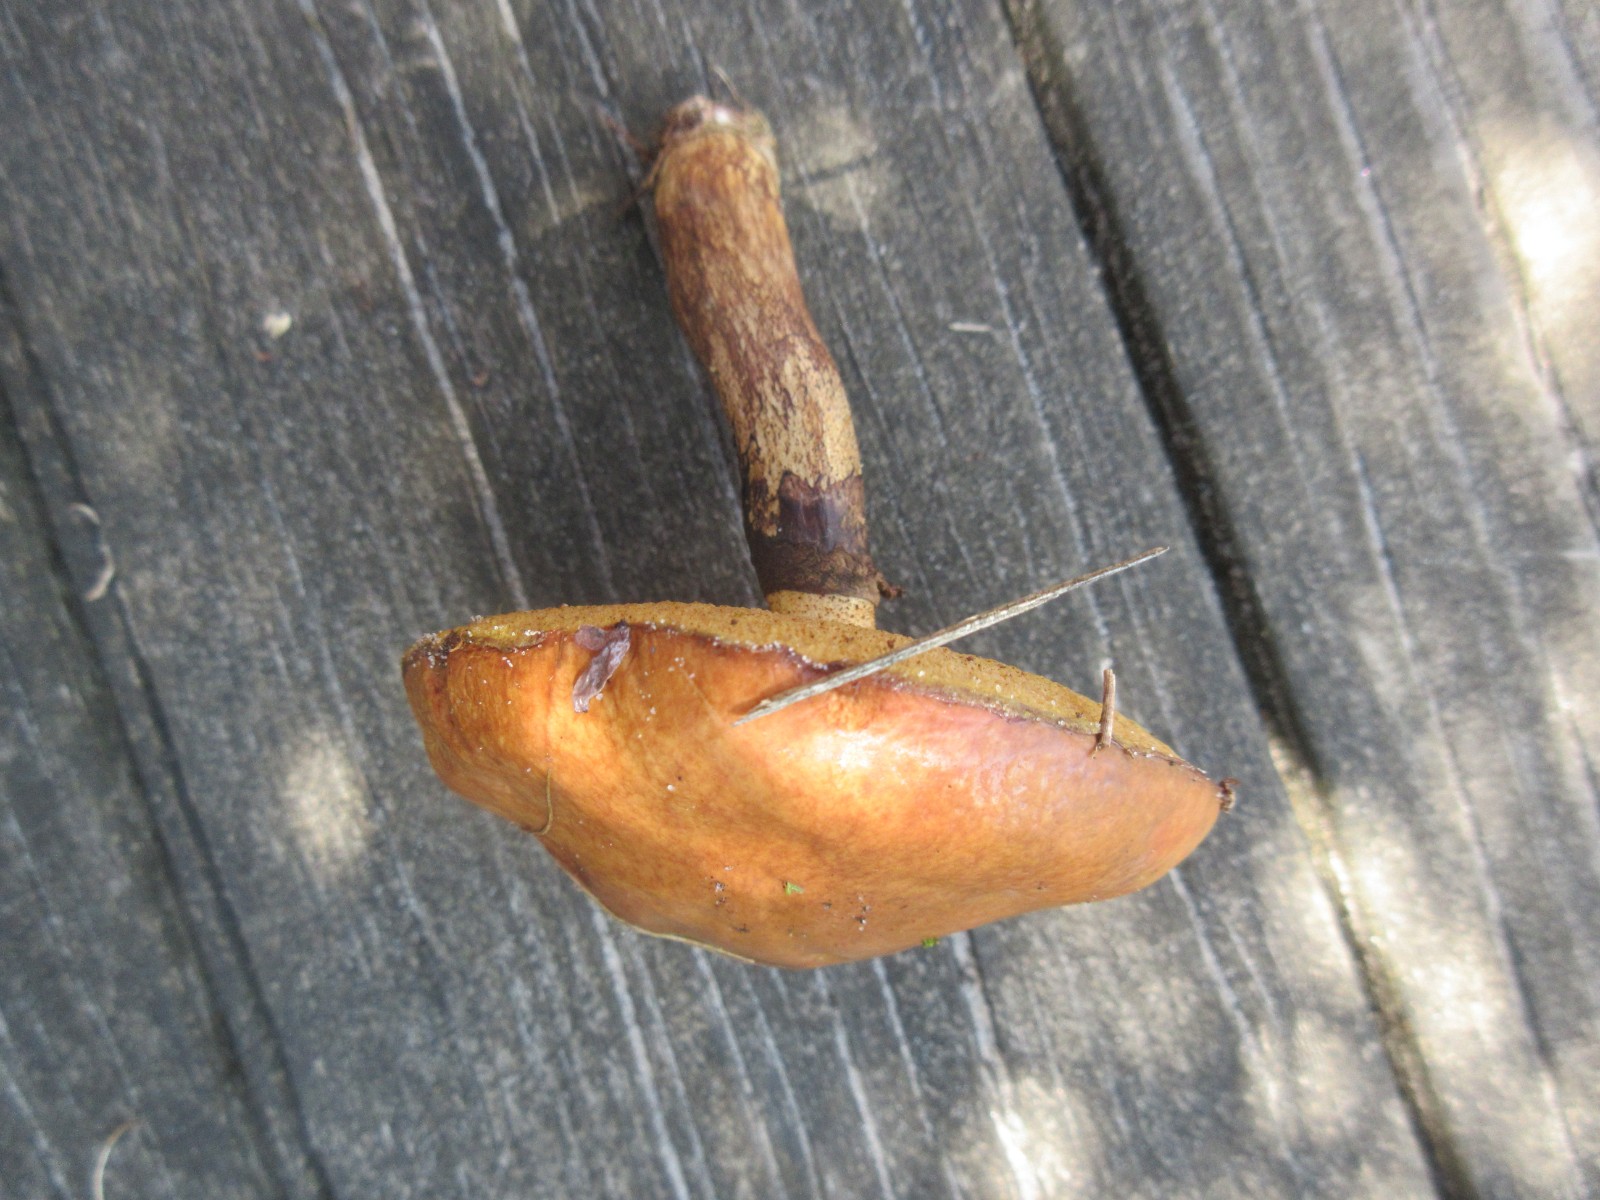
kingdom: Fungi
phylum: Basidiomycota
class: Agaricomycetes
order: Boletales
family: Suillaceae
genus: Suillus
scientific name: Suillus luteus
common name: brungul slimrørhat
